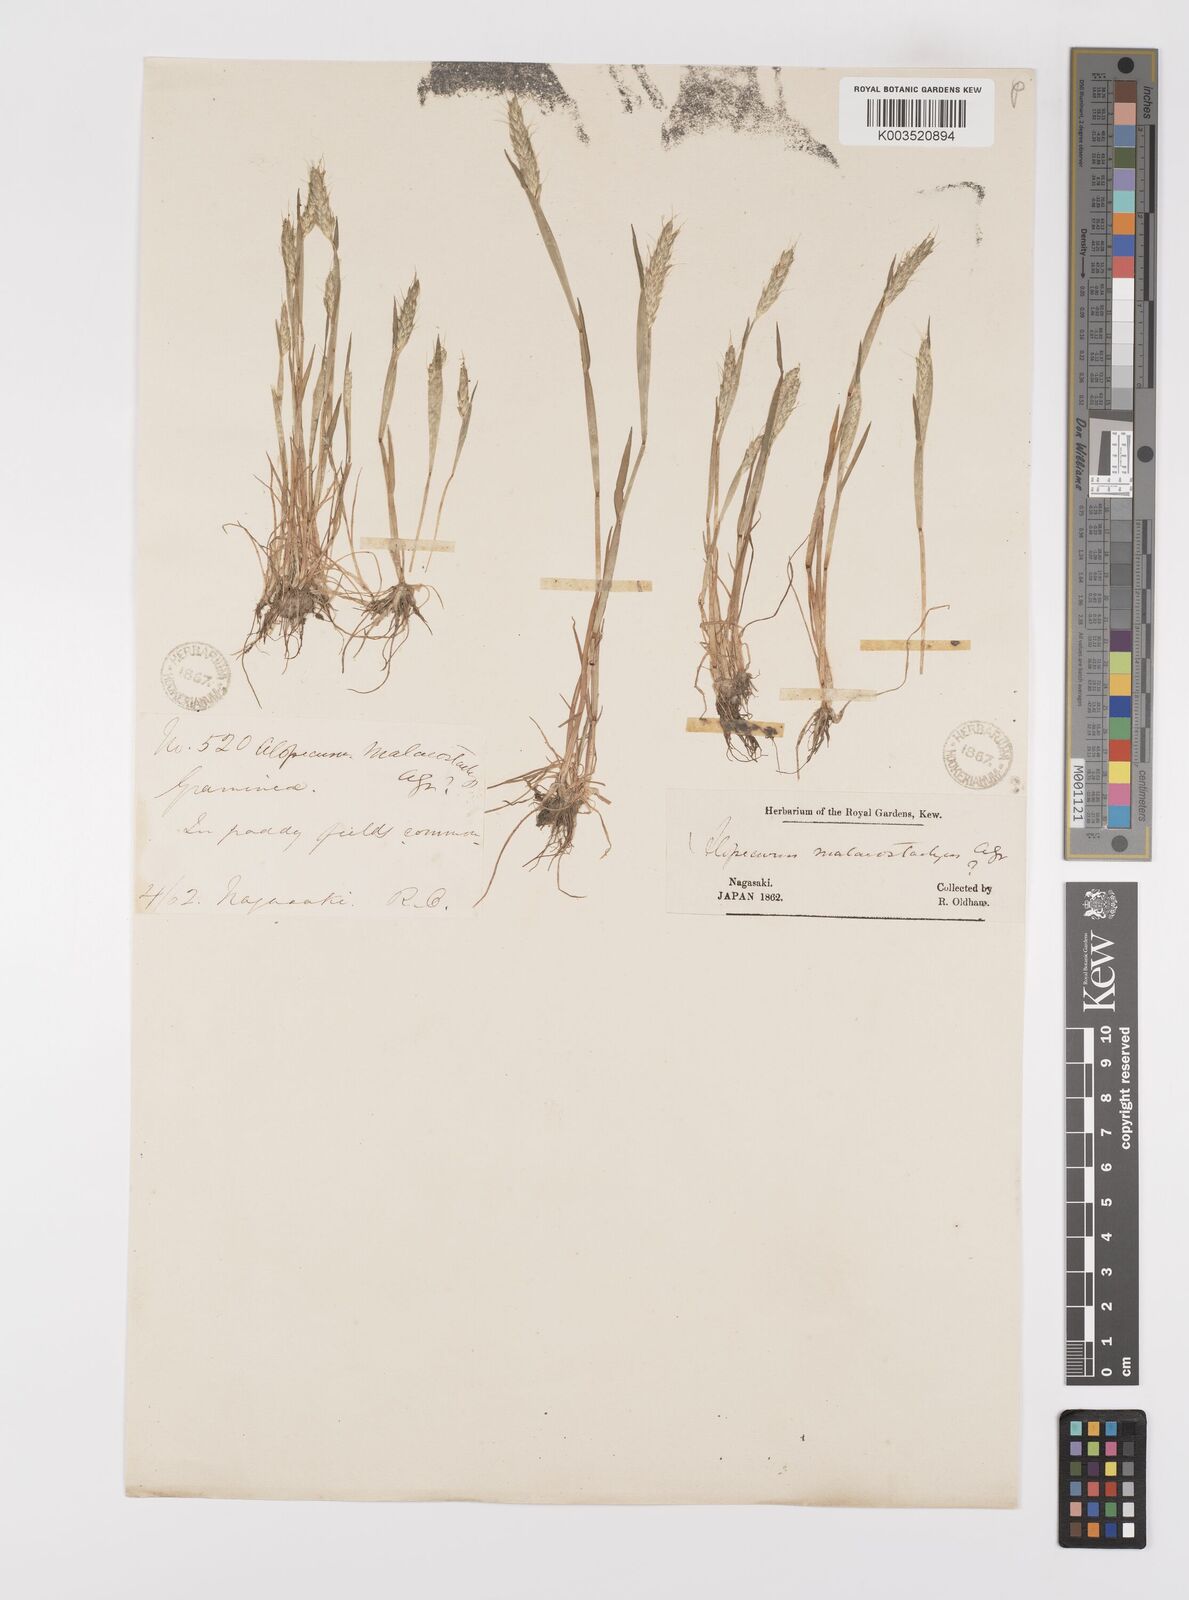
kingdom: Plantae
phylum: Tracheophyta
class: Liliopsida
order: Poales
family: Poaceae
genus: Alopecurus
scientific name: Alopecurus japonicus
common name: Japanese foxtail
